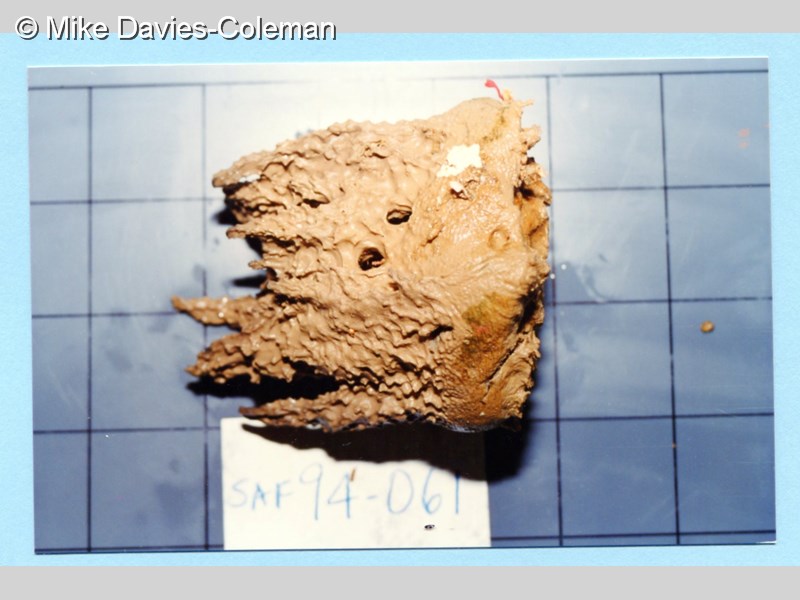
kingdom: Animalia
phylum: Porifera
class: Demospongiae
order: Dictyoceratida
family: Irciniidae
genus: Psammocinia
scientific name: Psammocinia
